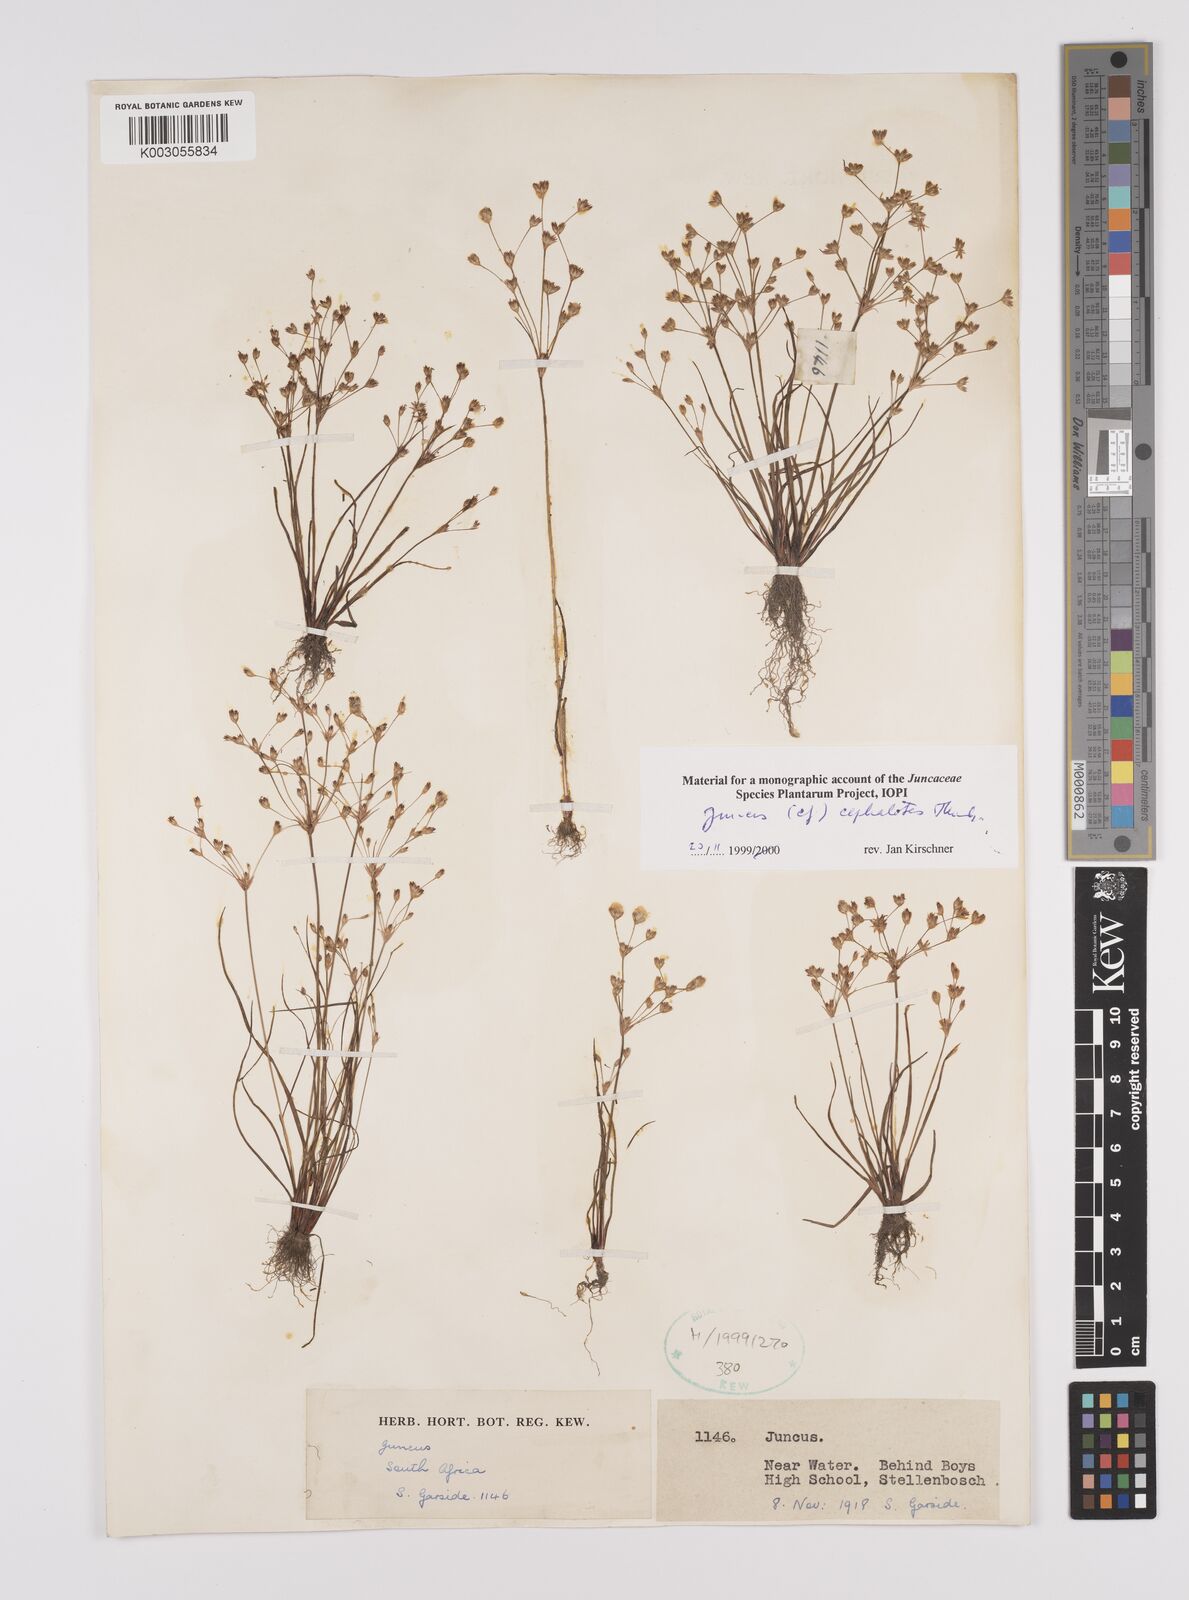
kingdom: Plantae
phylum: Tracheophyta
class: Liliopsida
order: Poales
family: Juncaceae
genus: Juncus
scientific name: Juncus cephalotes
